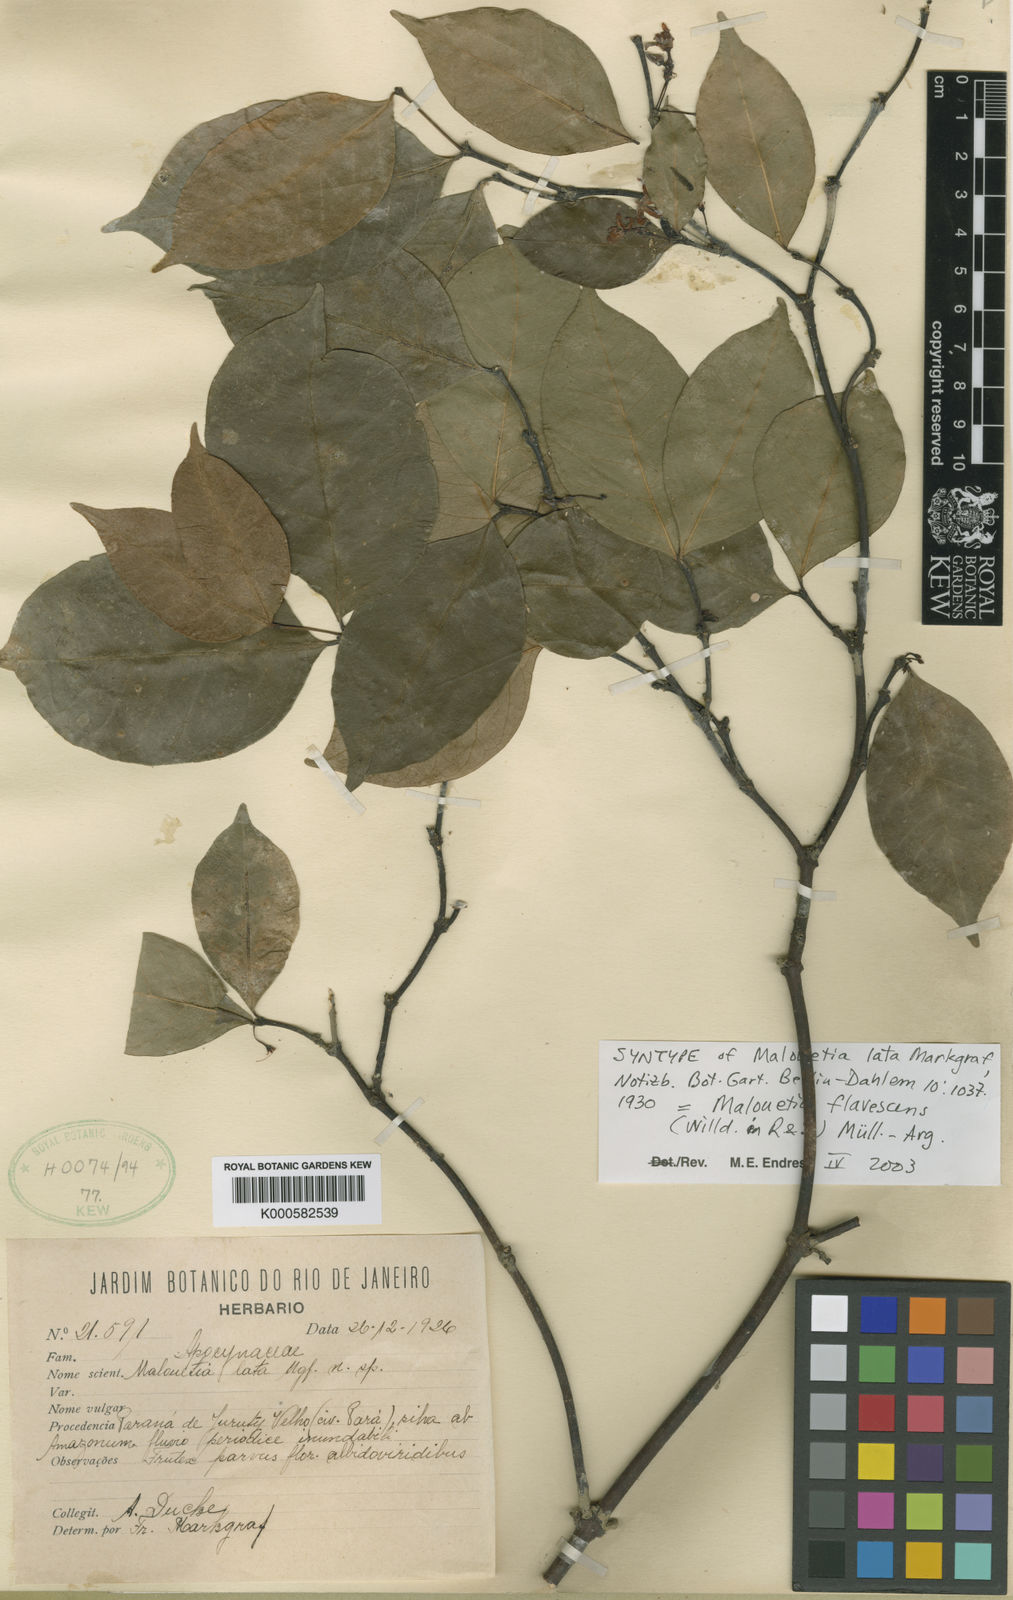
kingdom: Plantae
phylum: Tracheophyta
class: Magnoliopsida
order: Gentianales
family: Apocynaceae
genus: Malouetia
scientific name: Malouetia
